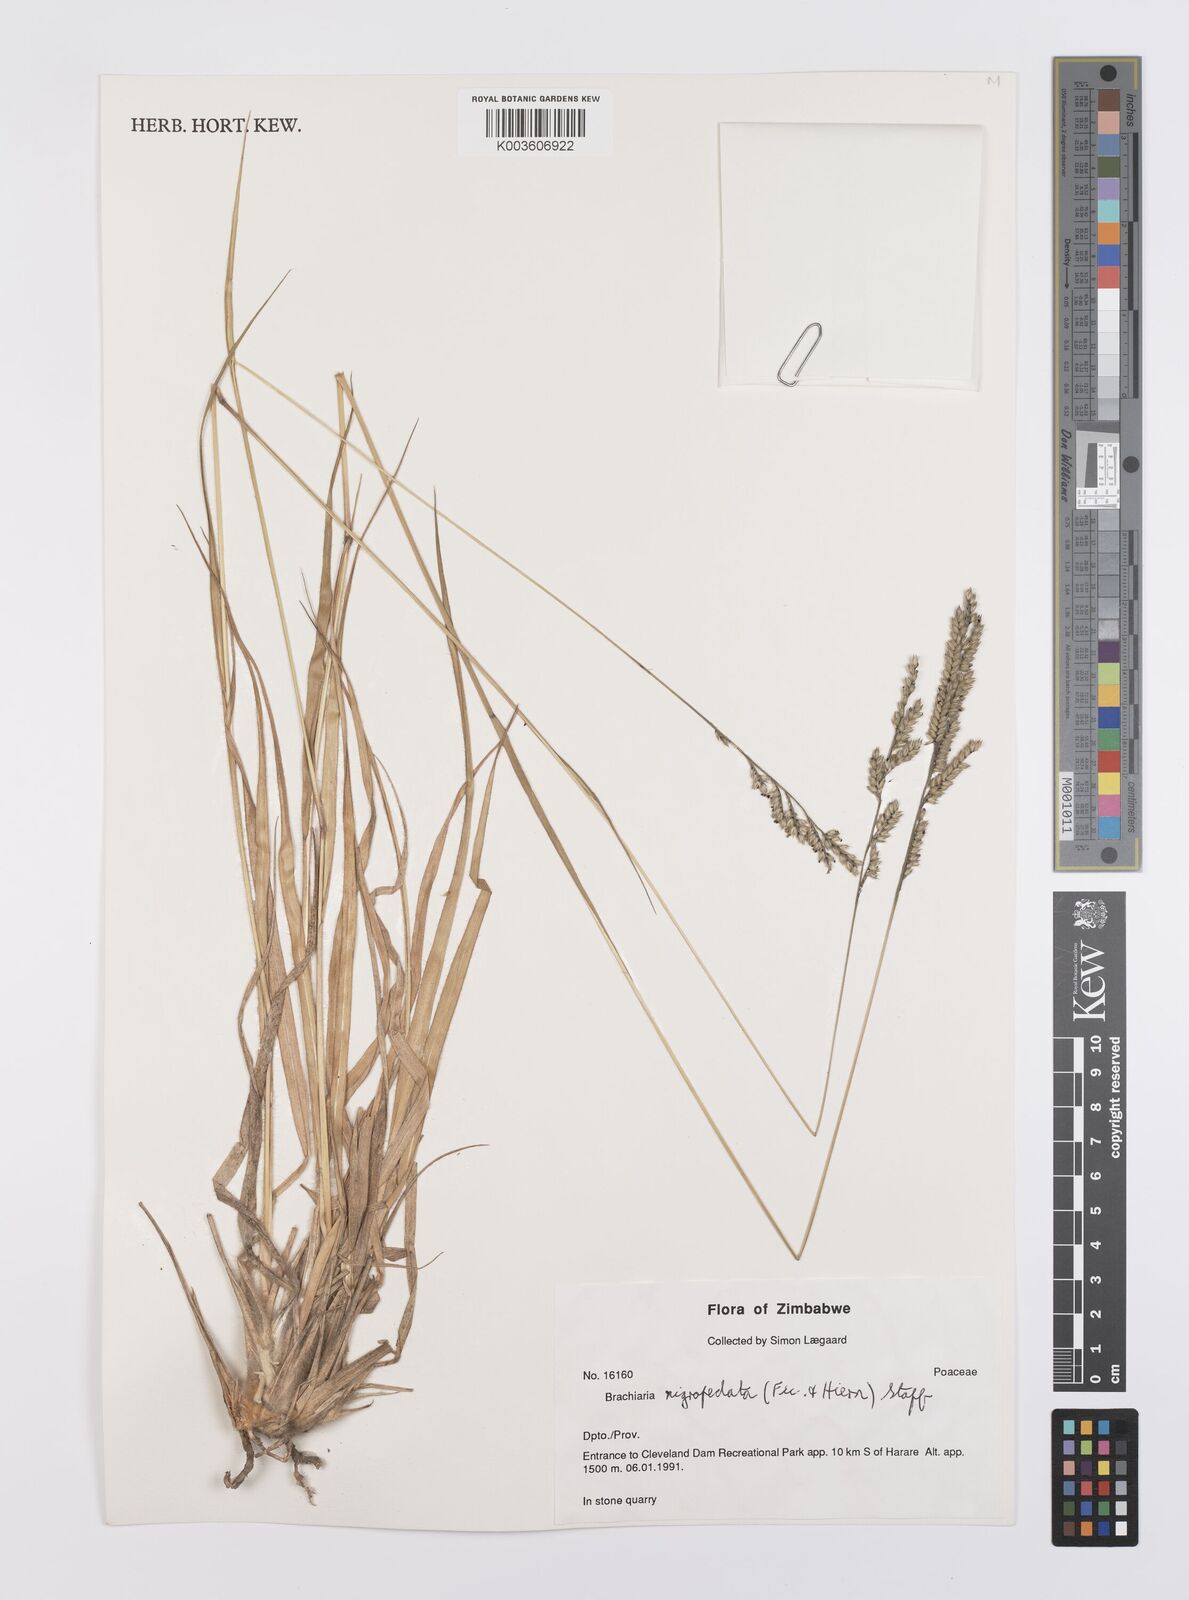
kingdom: Plantae
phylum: Tracheophyta
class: Liliopsida
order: Poales
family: Poaceae
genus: Urochloa
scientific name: Urochloa nigropedata
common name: Spotted signal grass
